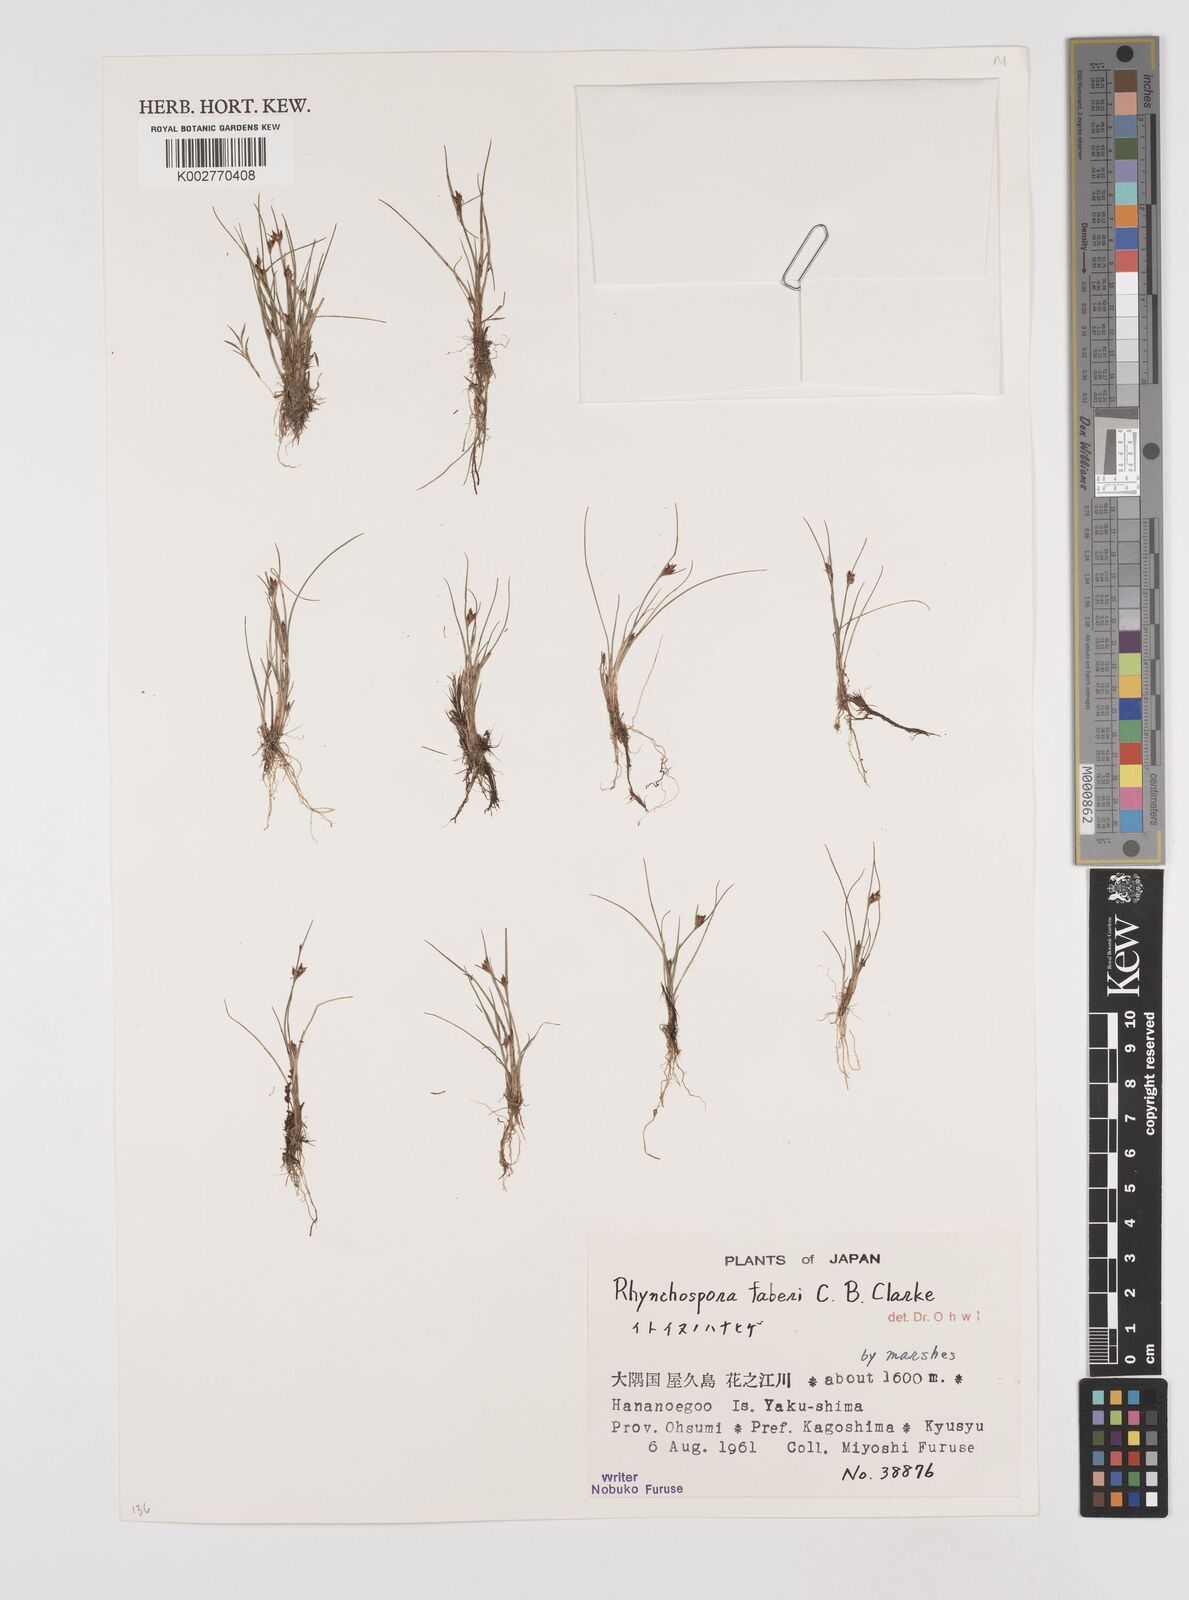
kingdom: Plantae
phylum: Tracheophyta
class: Liliopsida
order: Poales
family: Cyperaceae
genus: Rhynchospora
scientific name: Rhynchospora faberi
